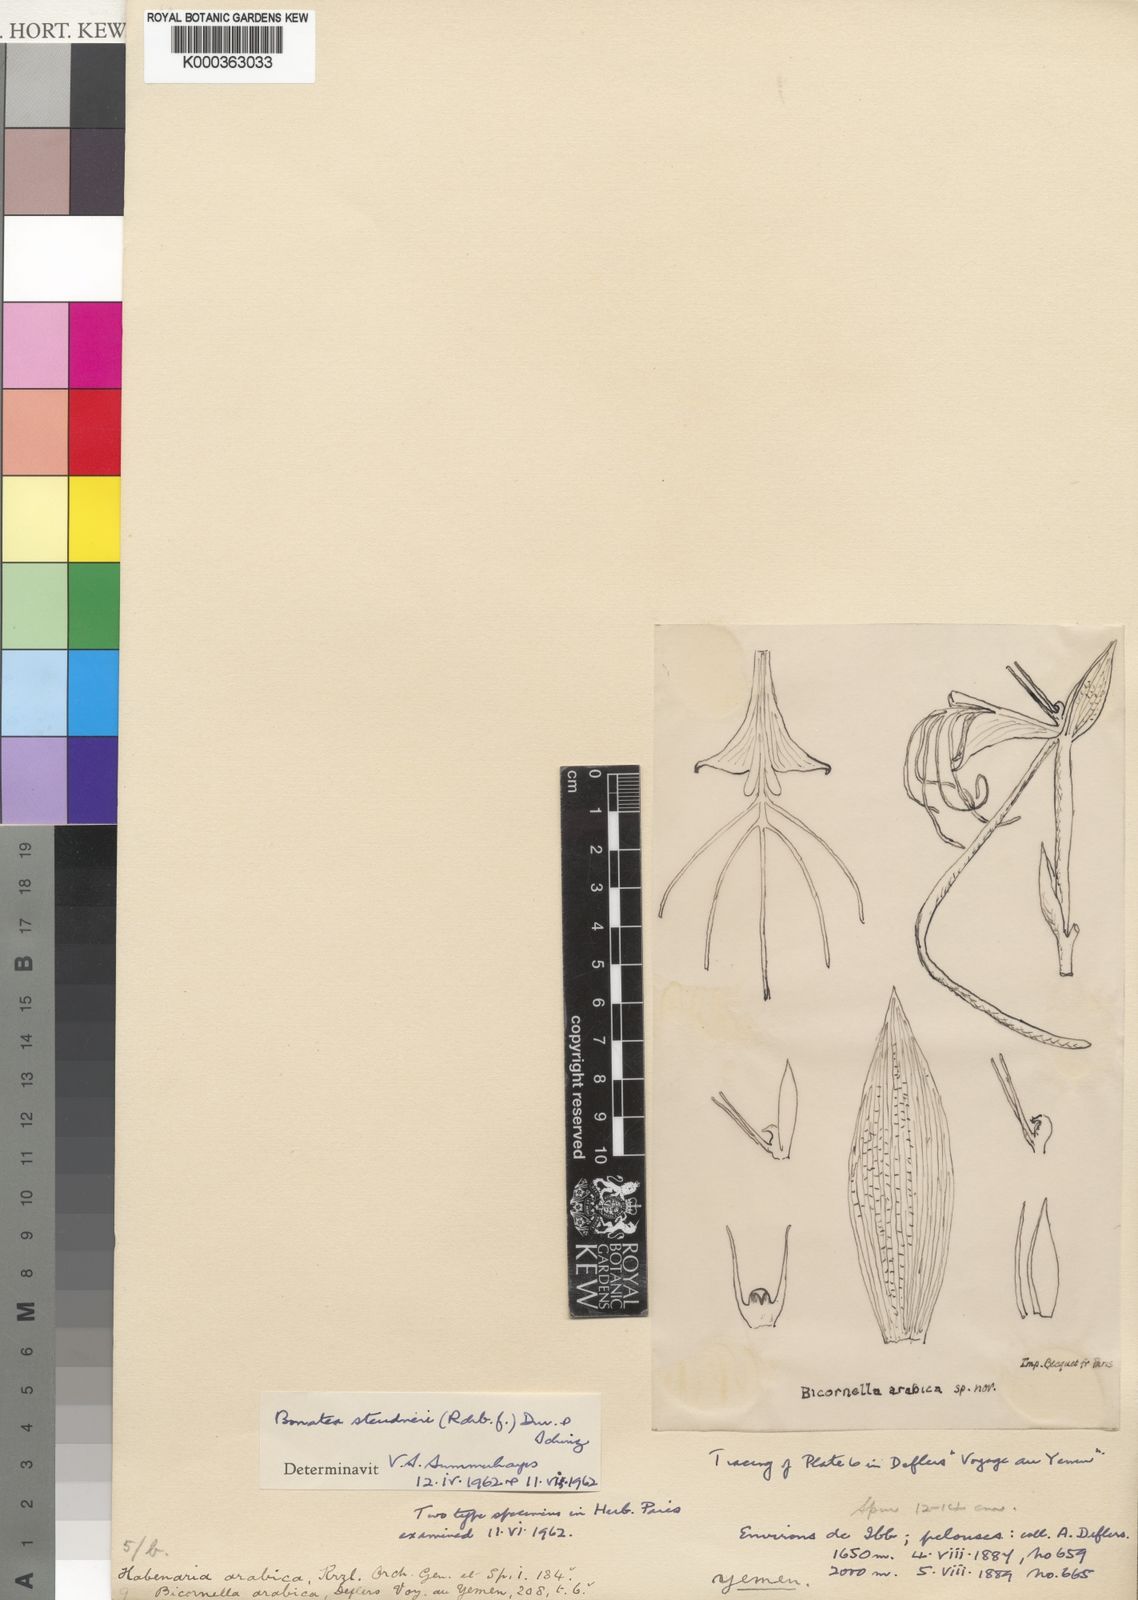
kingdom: Plantae
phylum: Tracheophyta
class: Liliopsida
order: Asparagales
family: Orchidaceae
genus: Bonatea
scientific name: Bonatea steudneri
